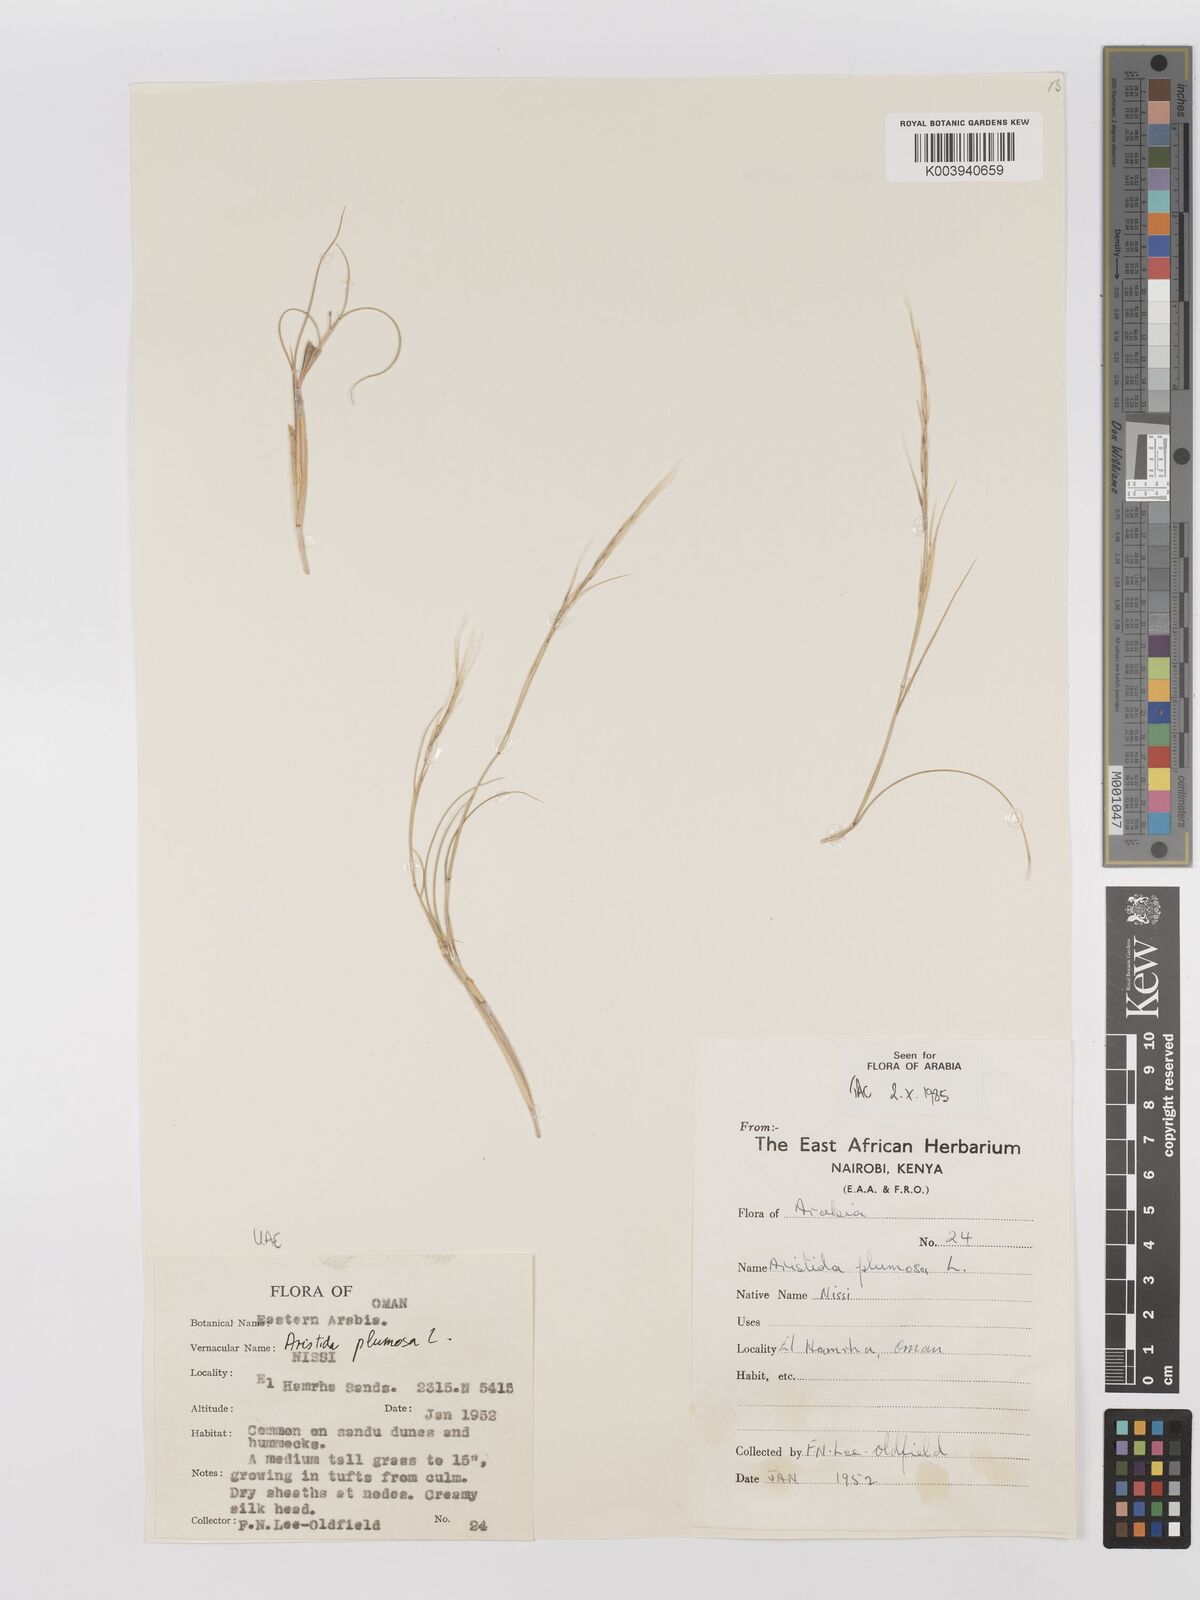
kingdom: Plantae
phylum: Tracheophyta
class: Liliopsida
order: Poales
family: Poaceae
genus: Stipagrostis
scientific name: Stipagrostis plumosa
